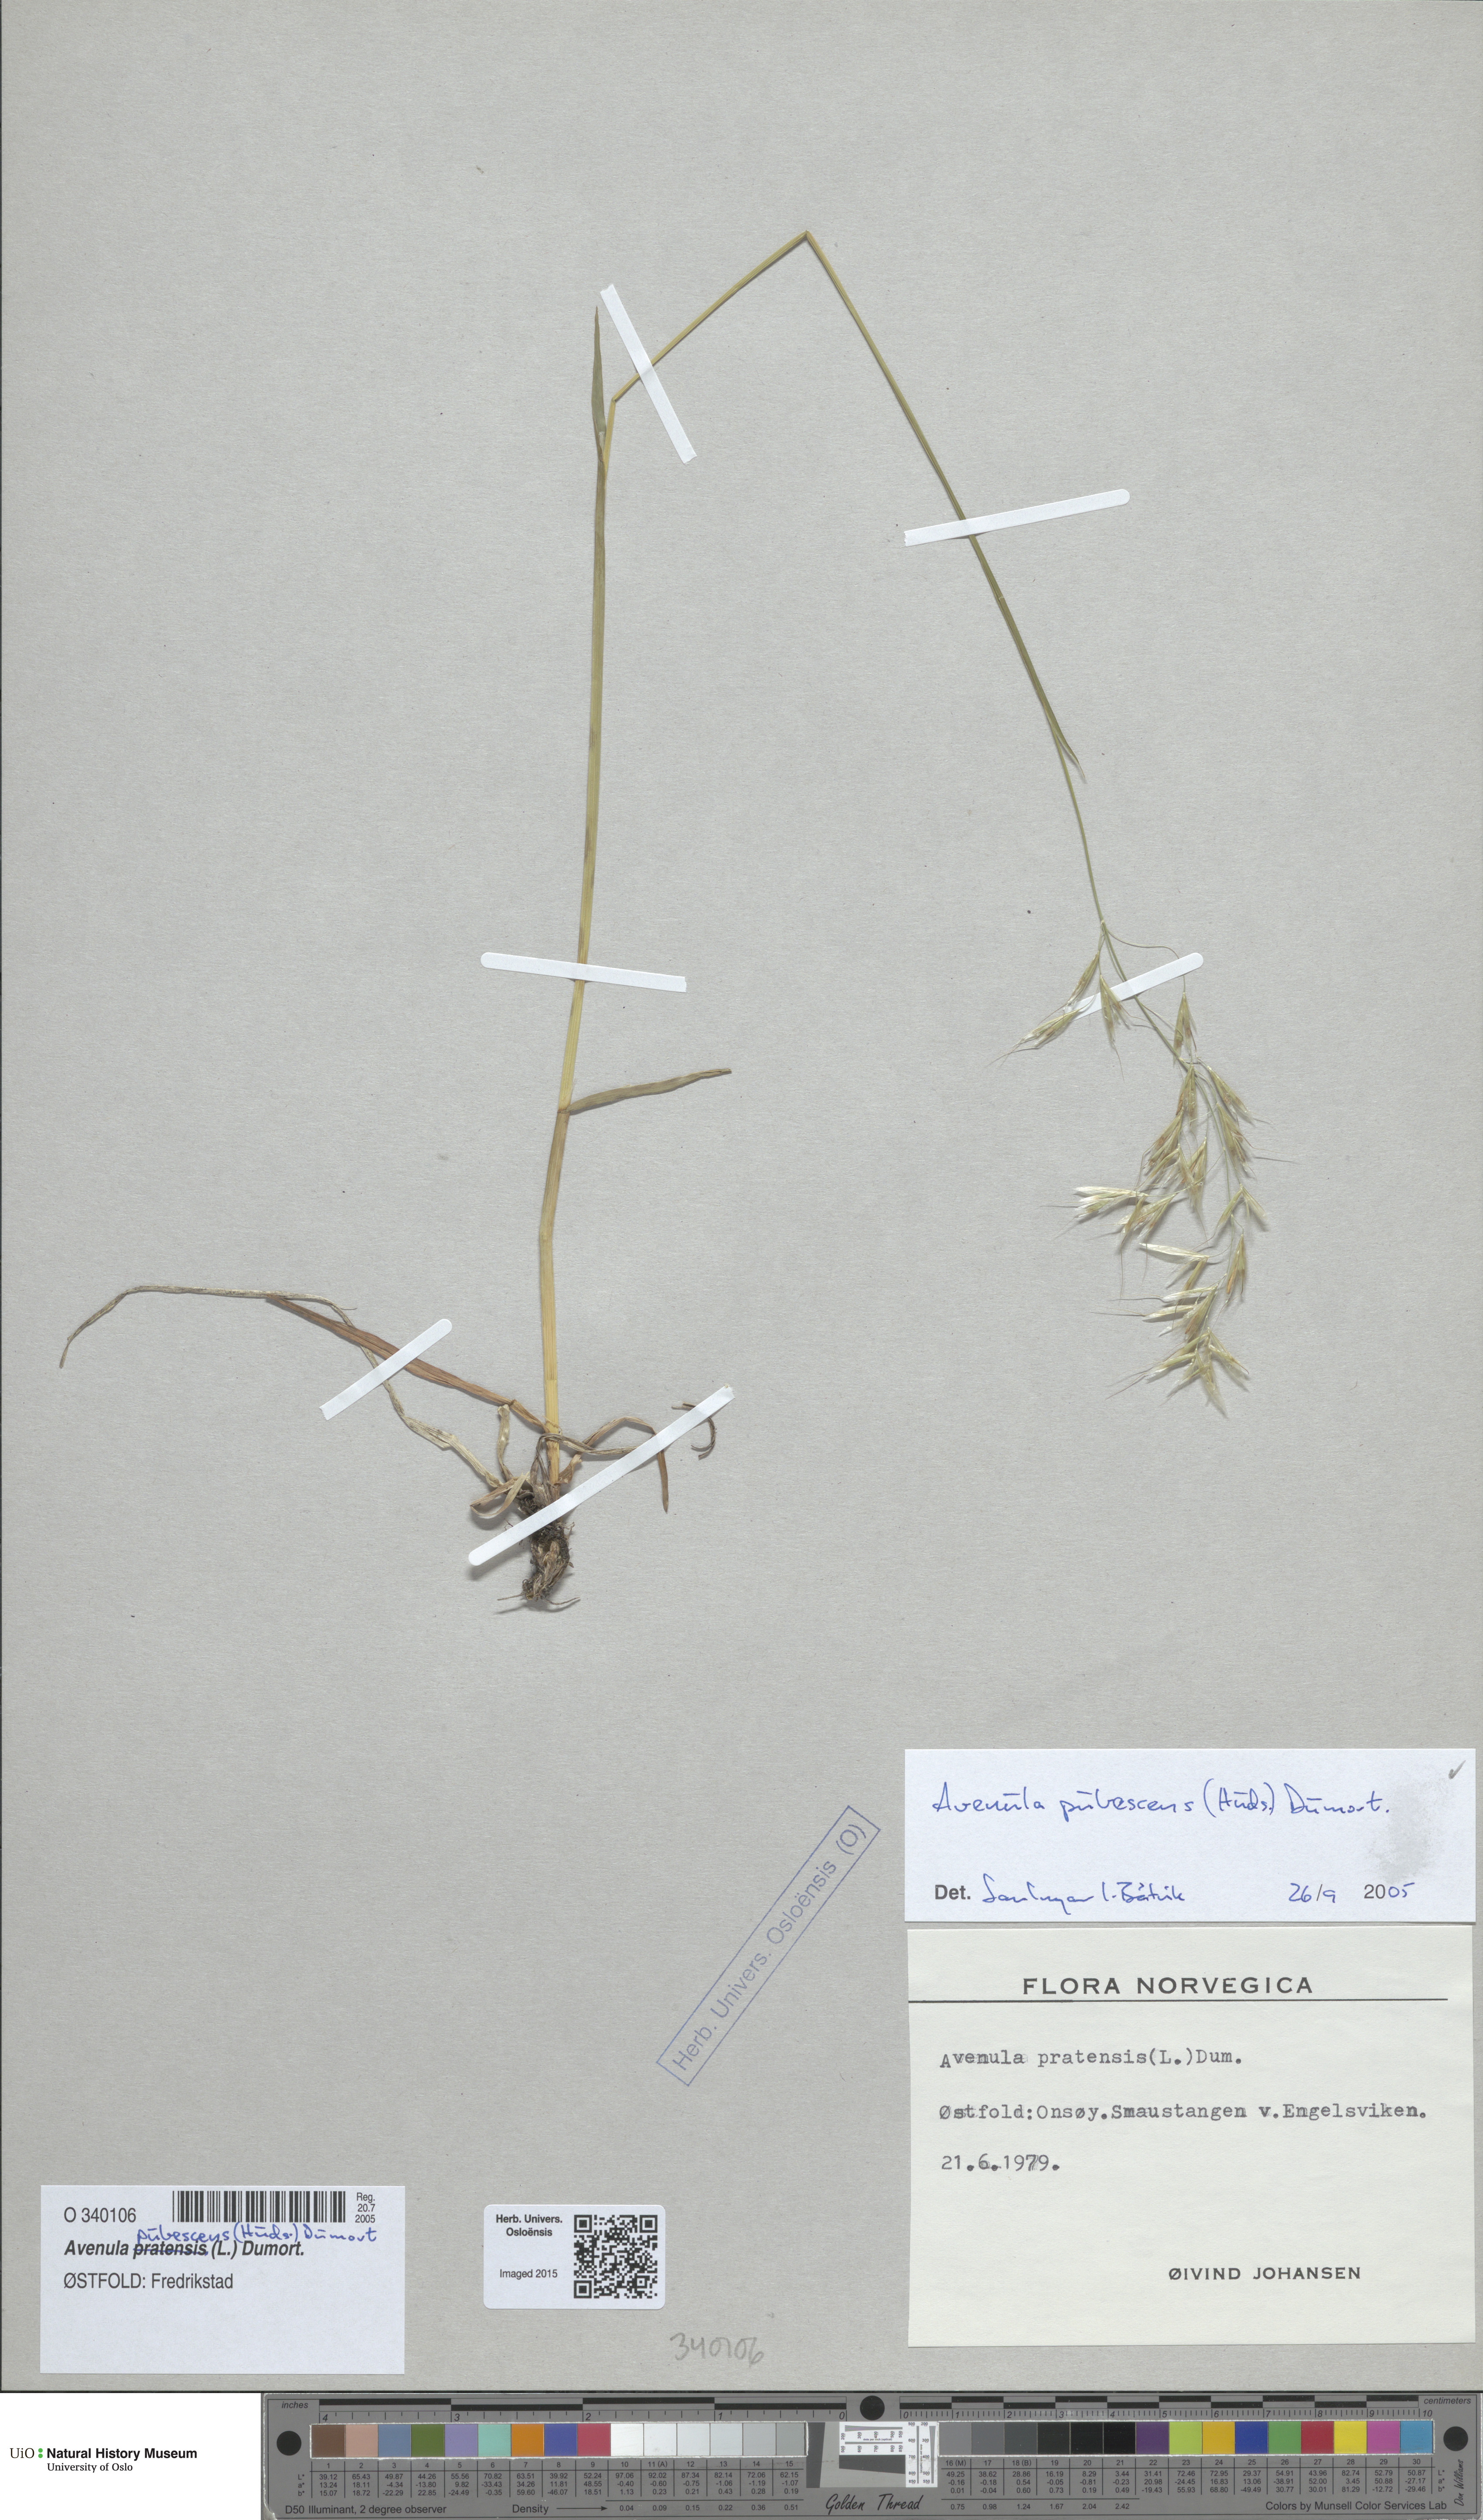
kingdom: Plantae
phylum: Tracheophyta
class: Liliopsida
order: Poales
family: Poaceae
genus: Avenula
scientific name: Avenula pubescens
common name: Downy alpine oatgrass
